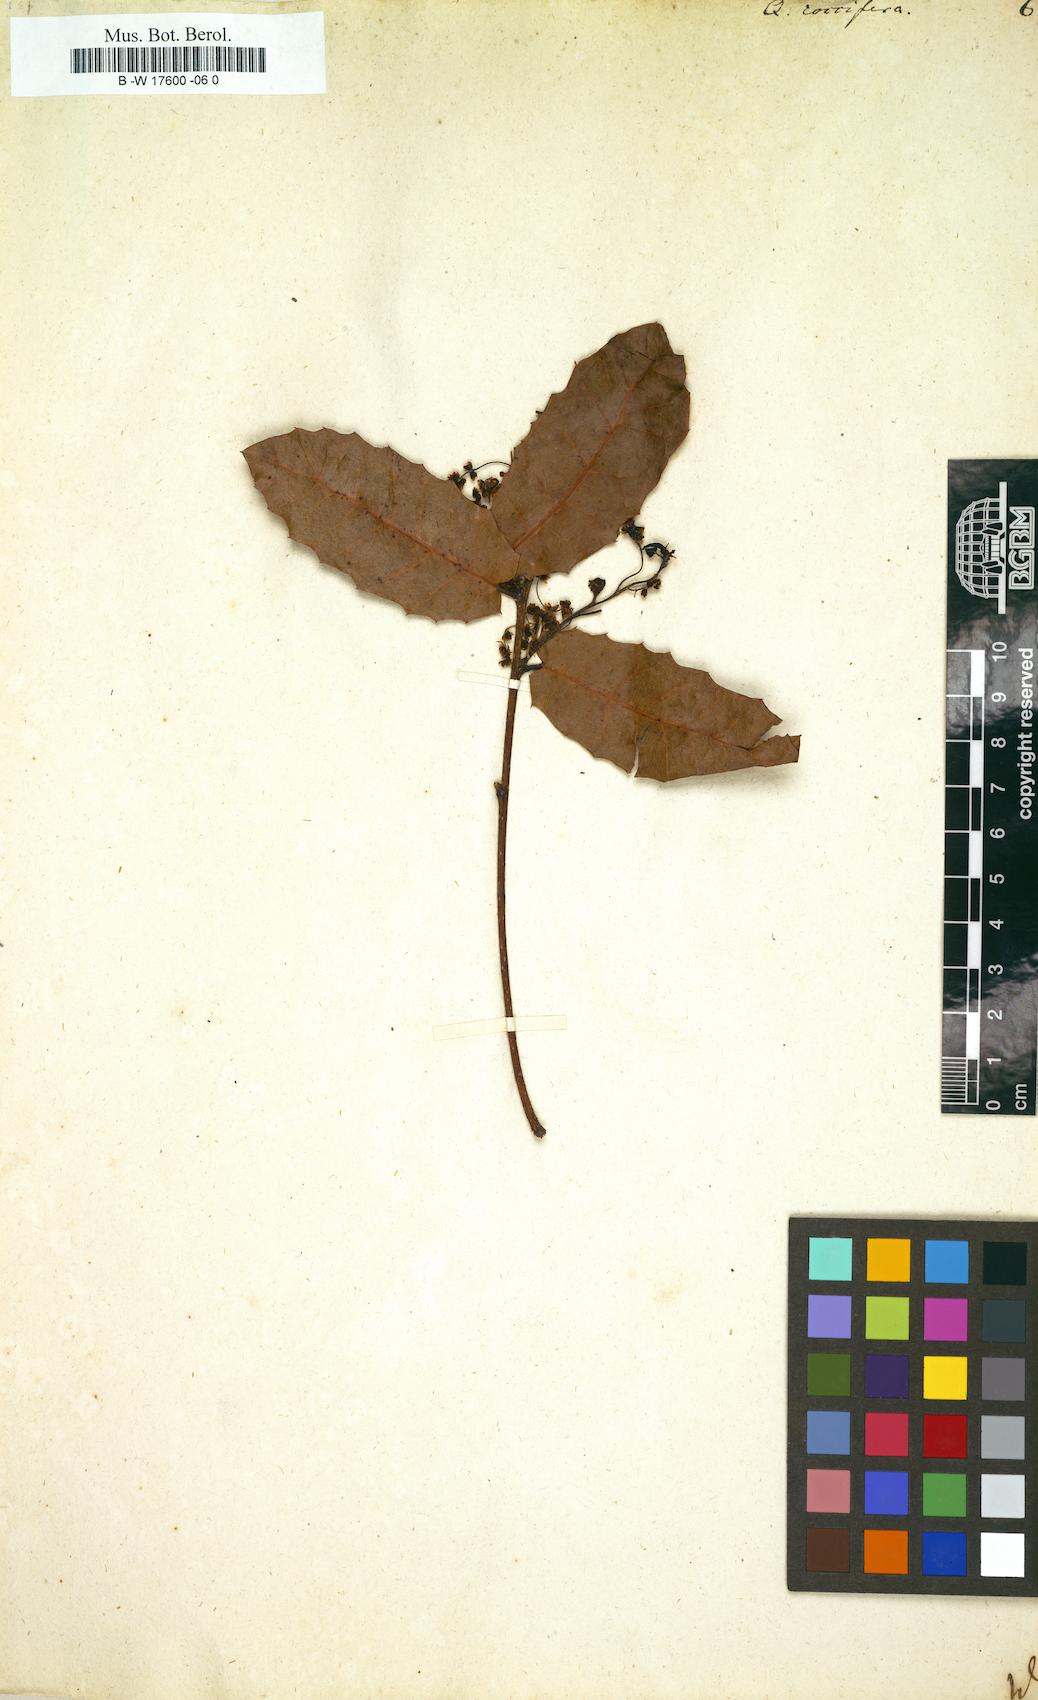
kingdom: Plantae
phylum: Tracheophyta
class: Magnoliopsida
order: Fagales
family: Fagaceae
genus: Quercus
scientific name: Quercus coccifera
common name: Kermes oak
